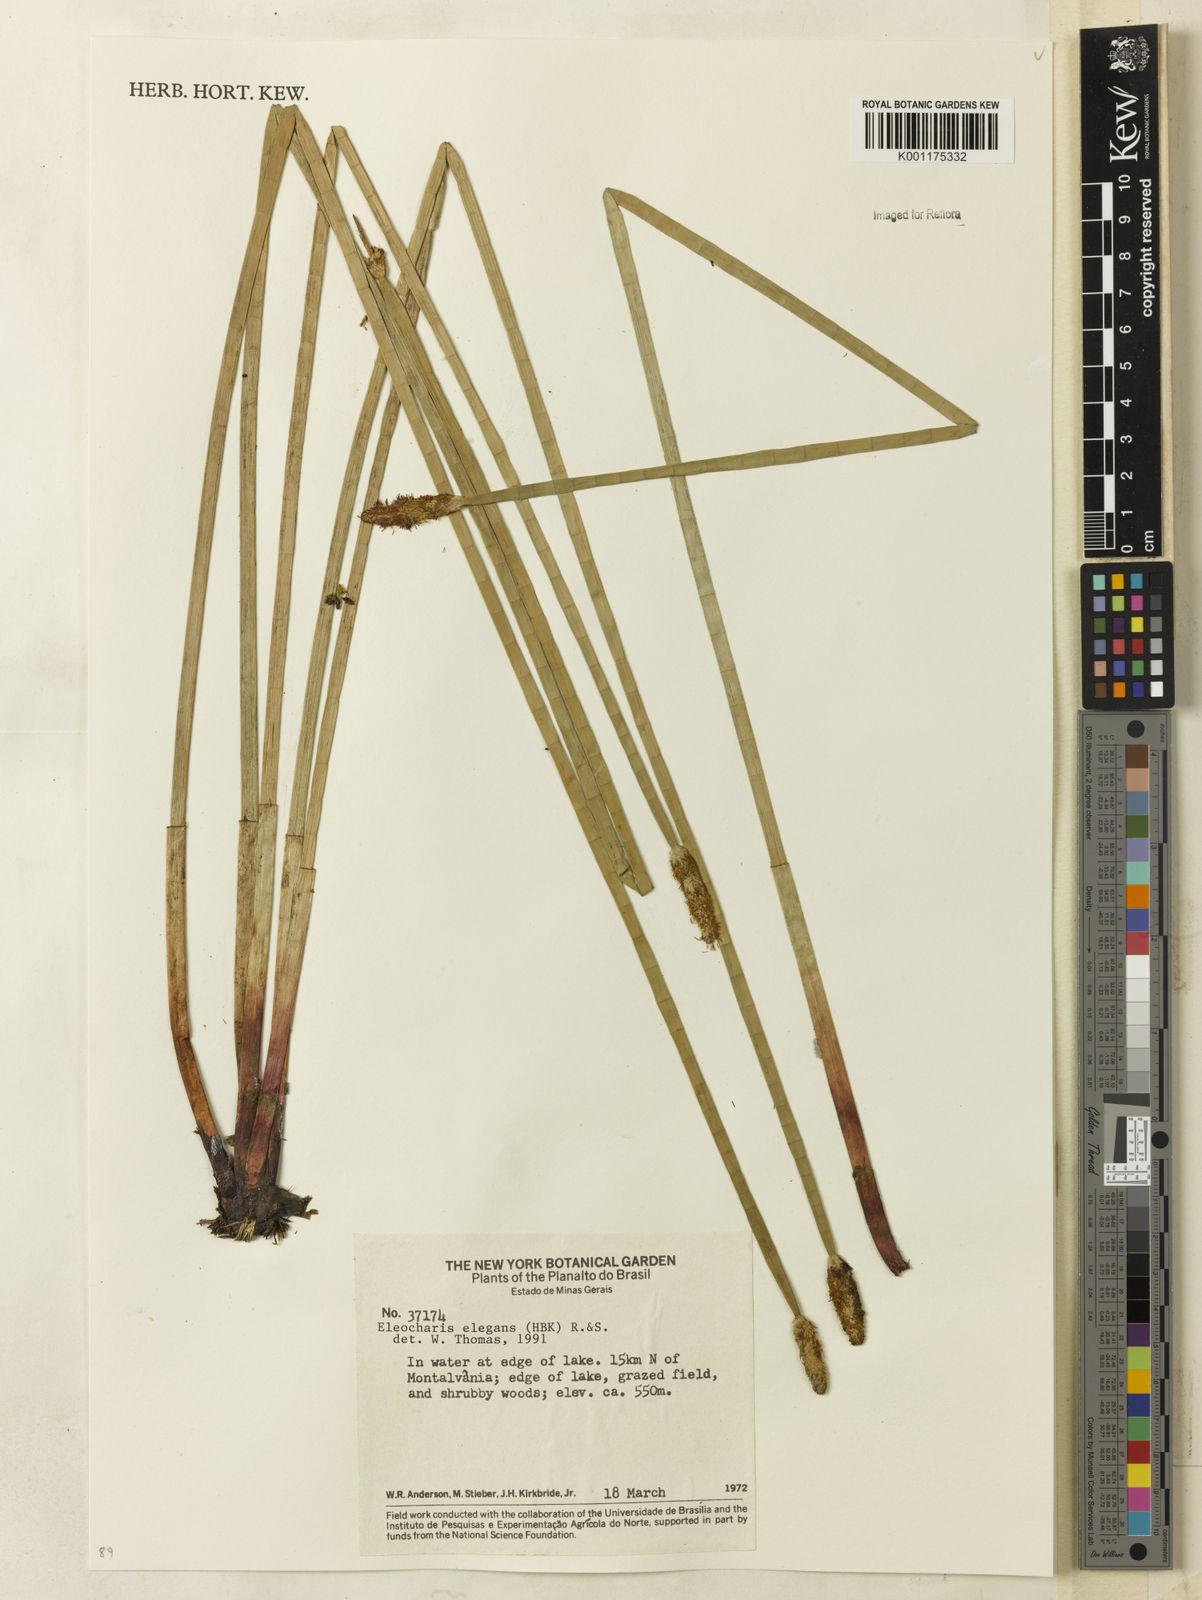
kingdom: Plantae
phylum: Tracheophyta
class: Liliopsida
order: Poales
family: Cyperaceae
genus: Eleocharis
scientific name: Eleocharis elegans
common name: Elegant spike-rush
